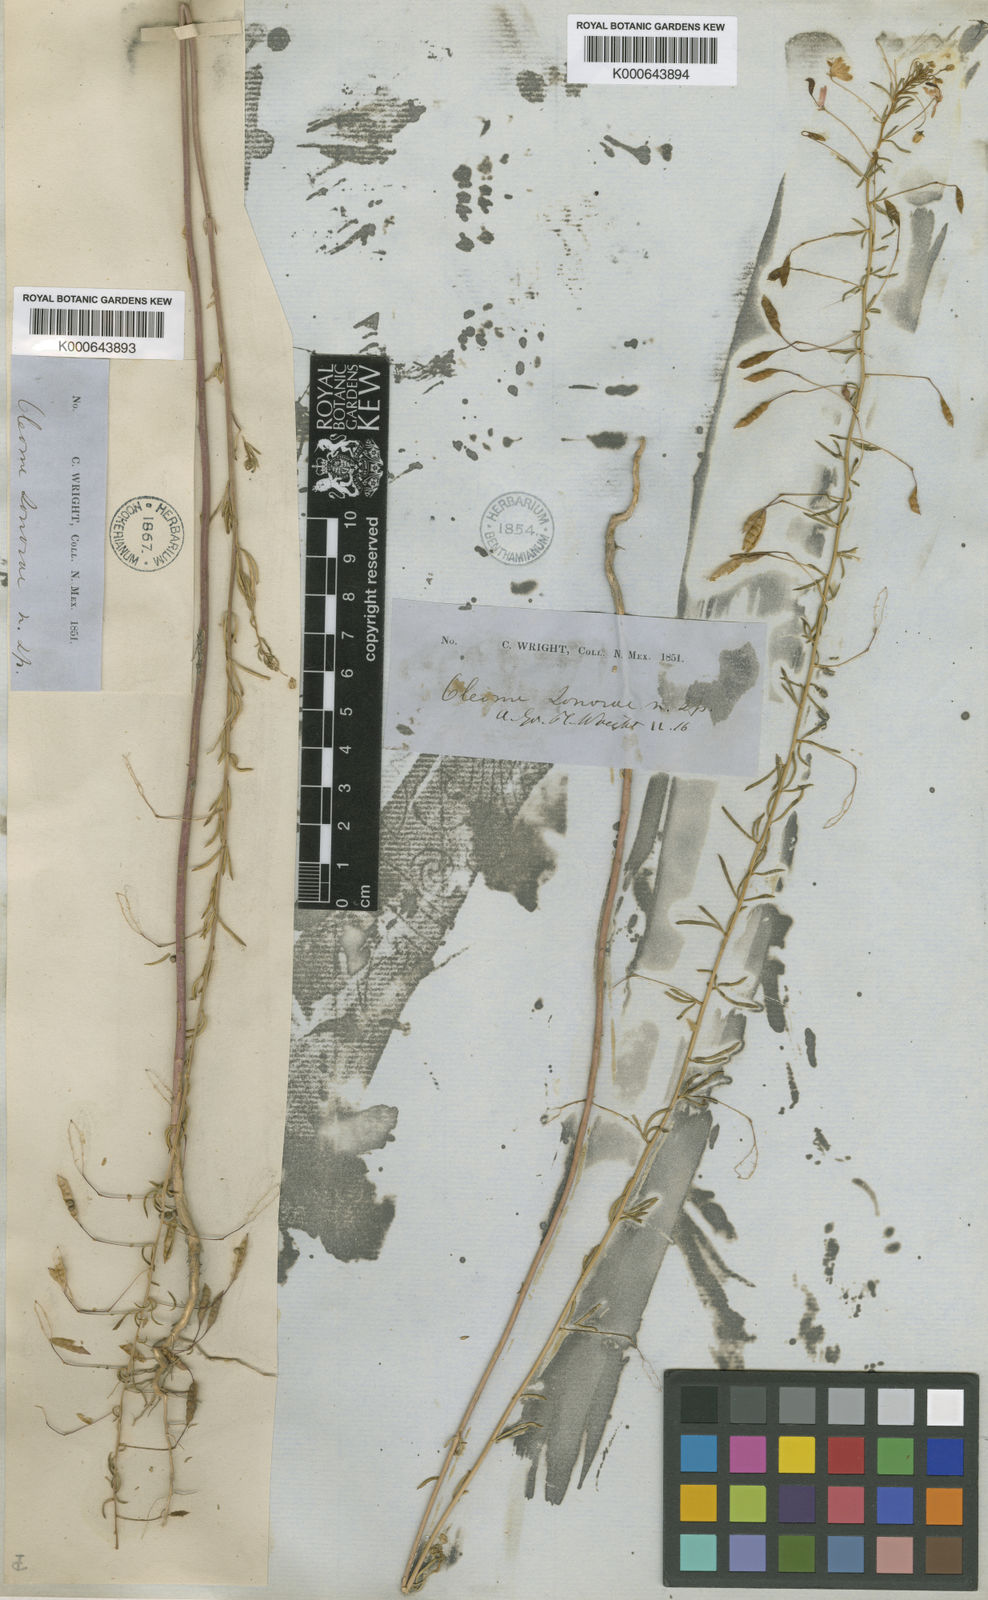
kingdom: Plantae
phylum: Tracheophyta
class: Magnoliopsida
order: Brassicales
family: Cleomaceae
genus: Cleomella
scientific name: Cleomella multicaulis
